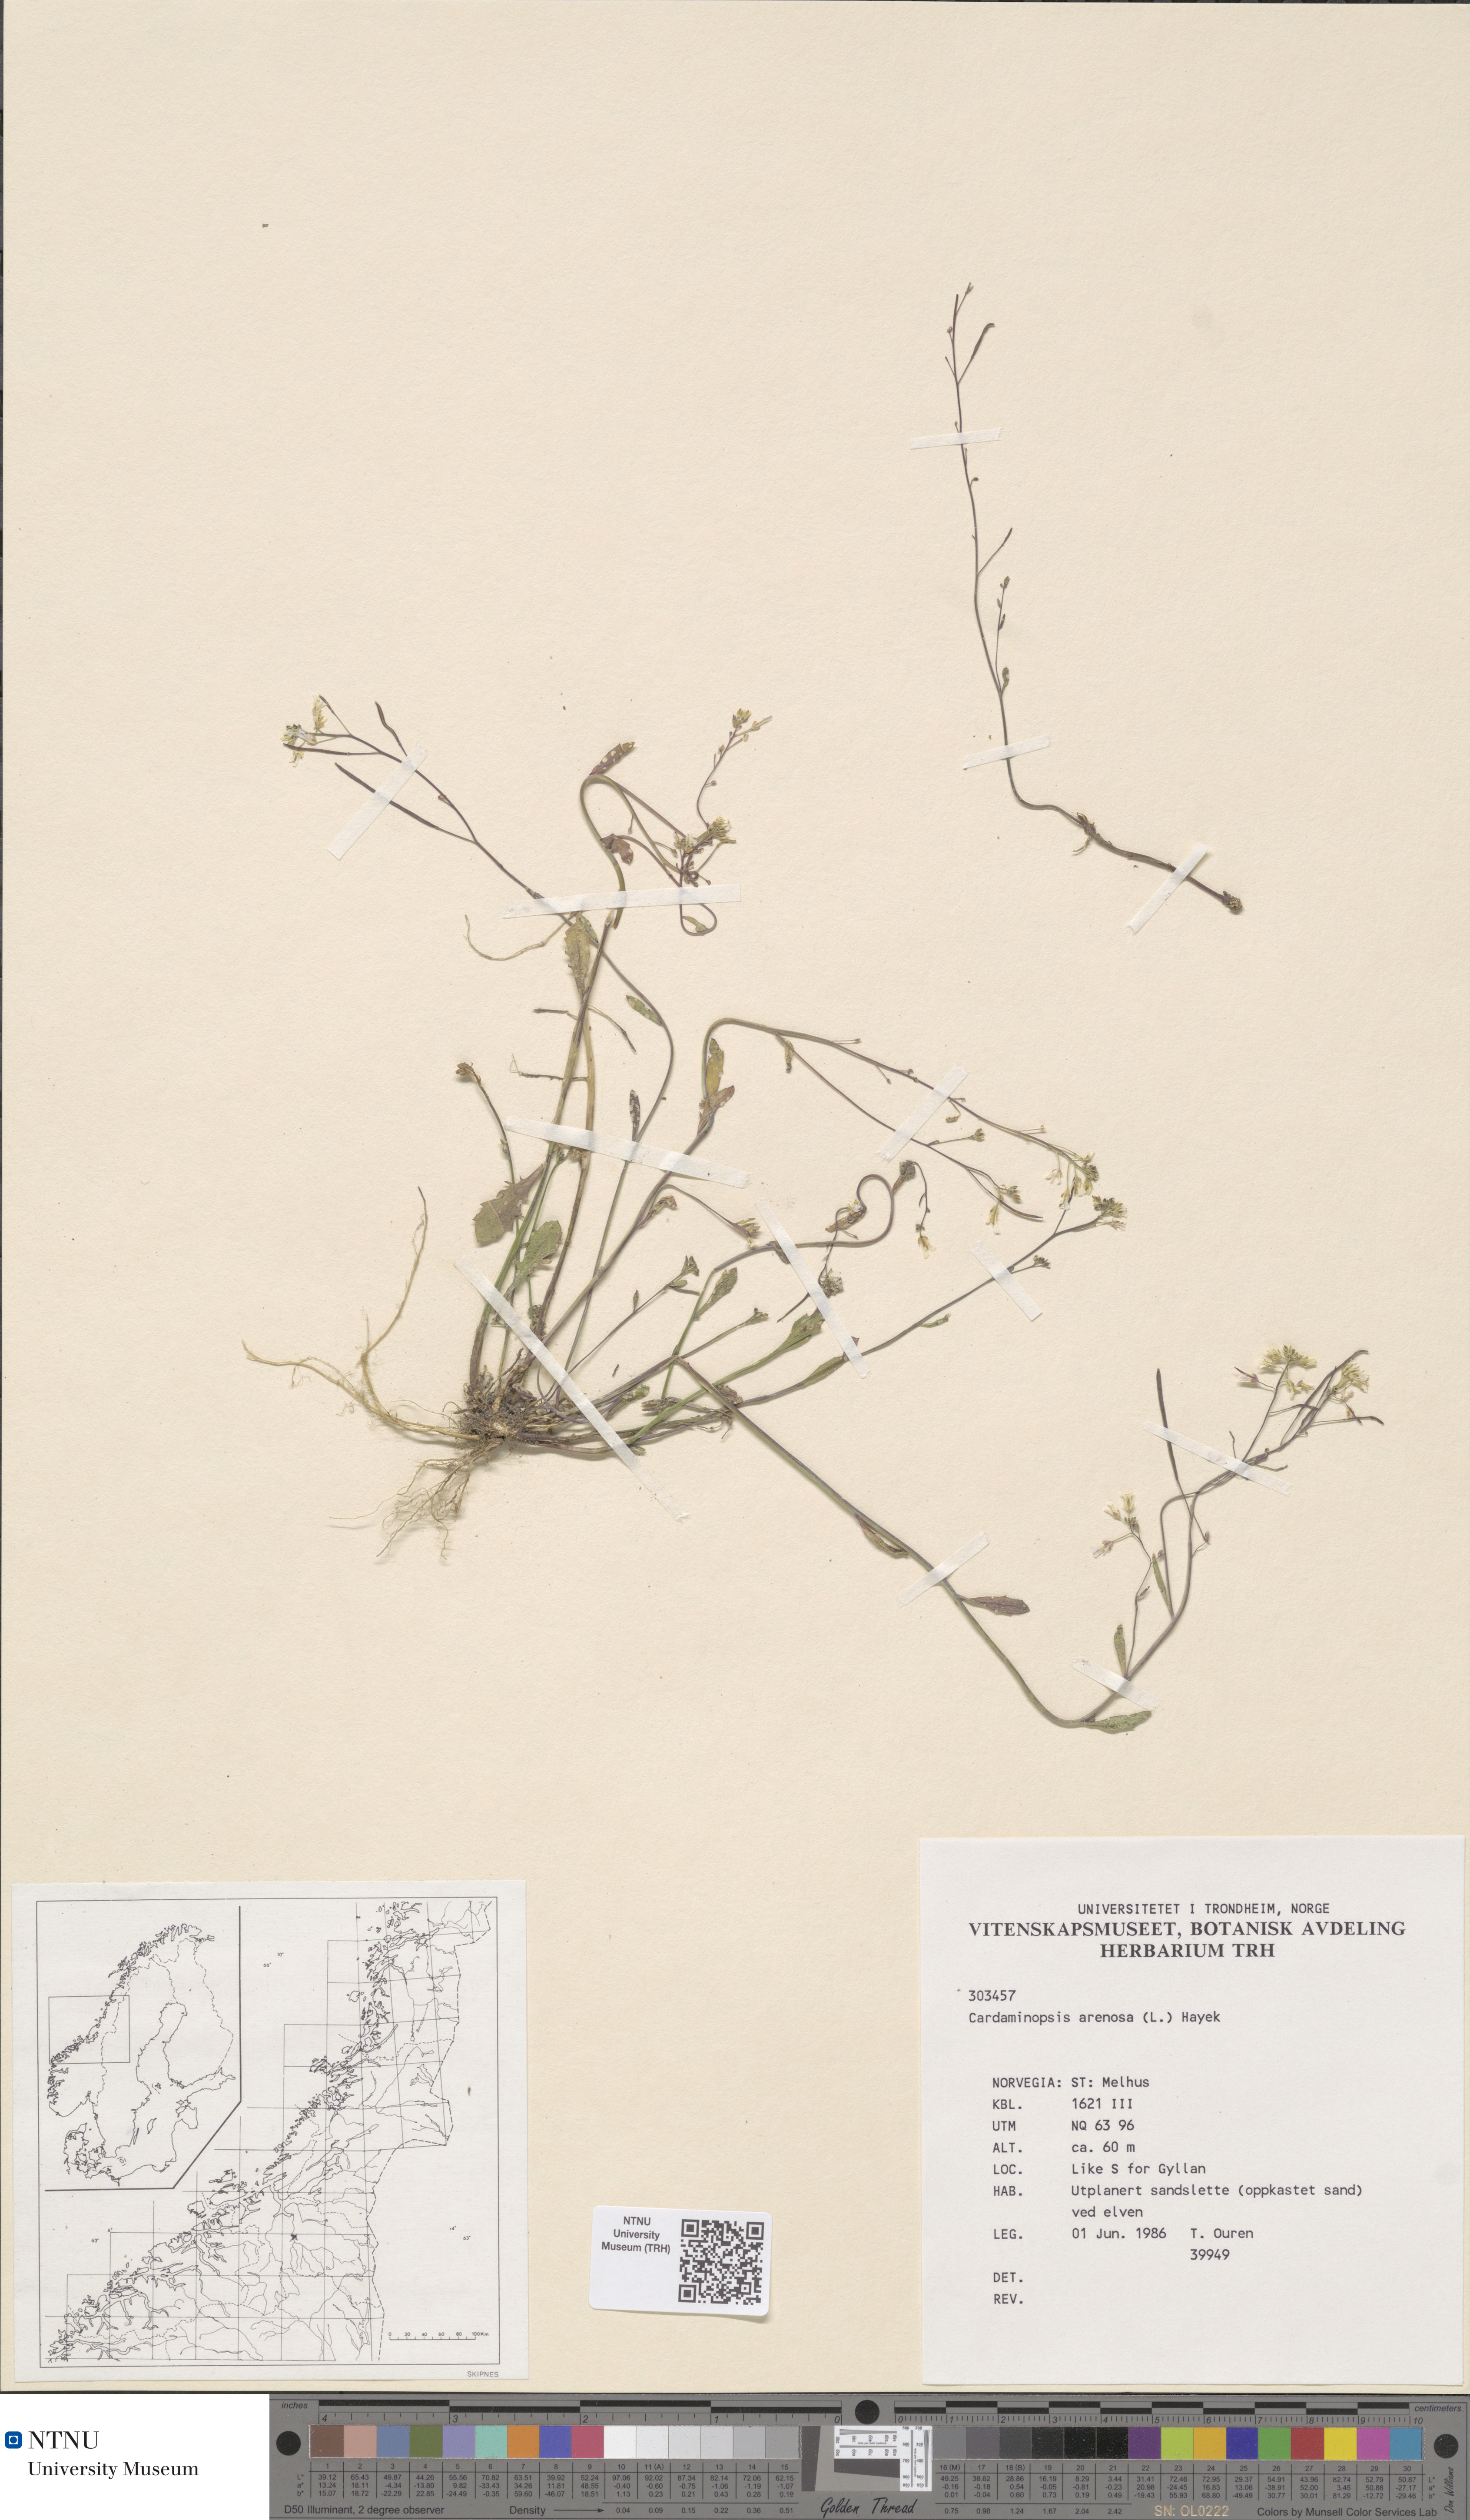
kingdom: Plantae
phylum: Tracheophyta
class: Magnoliopsida
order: Brassicales
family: Brassicaceae
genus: Arabidopsis
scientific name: Arabidopsis arenosa
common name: Sand rock-cress
